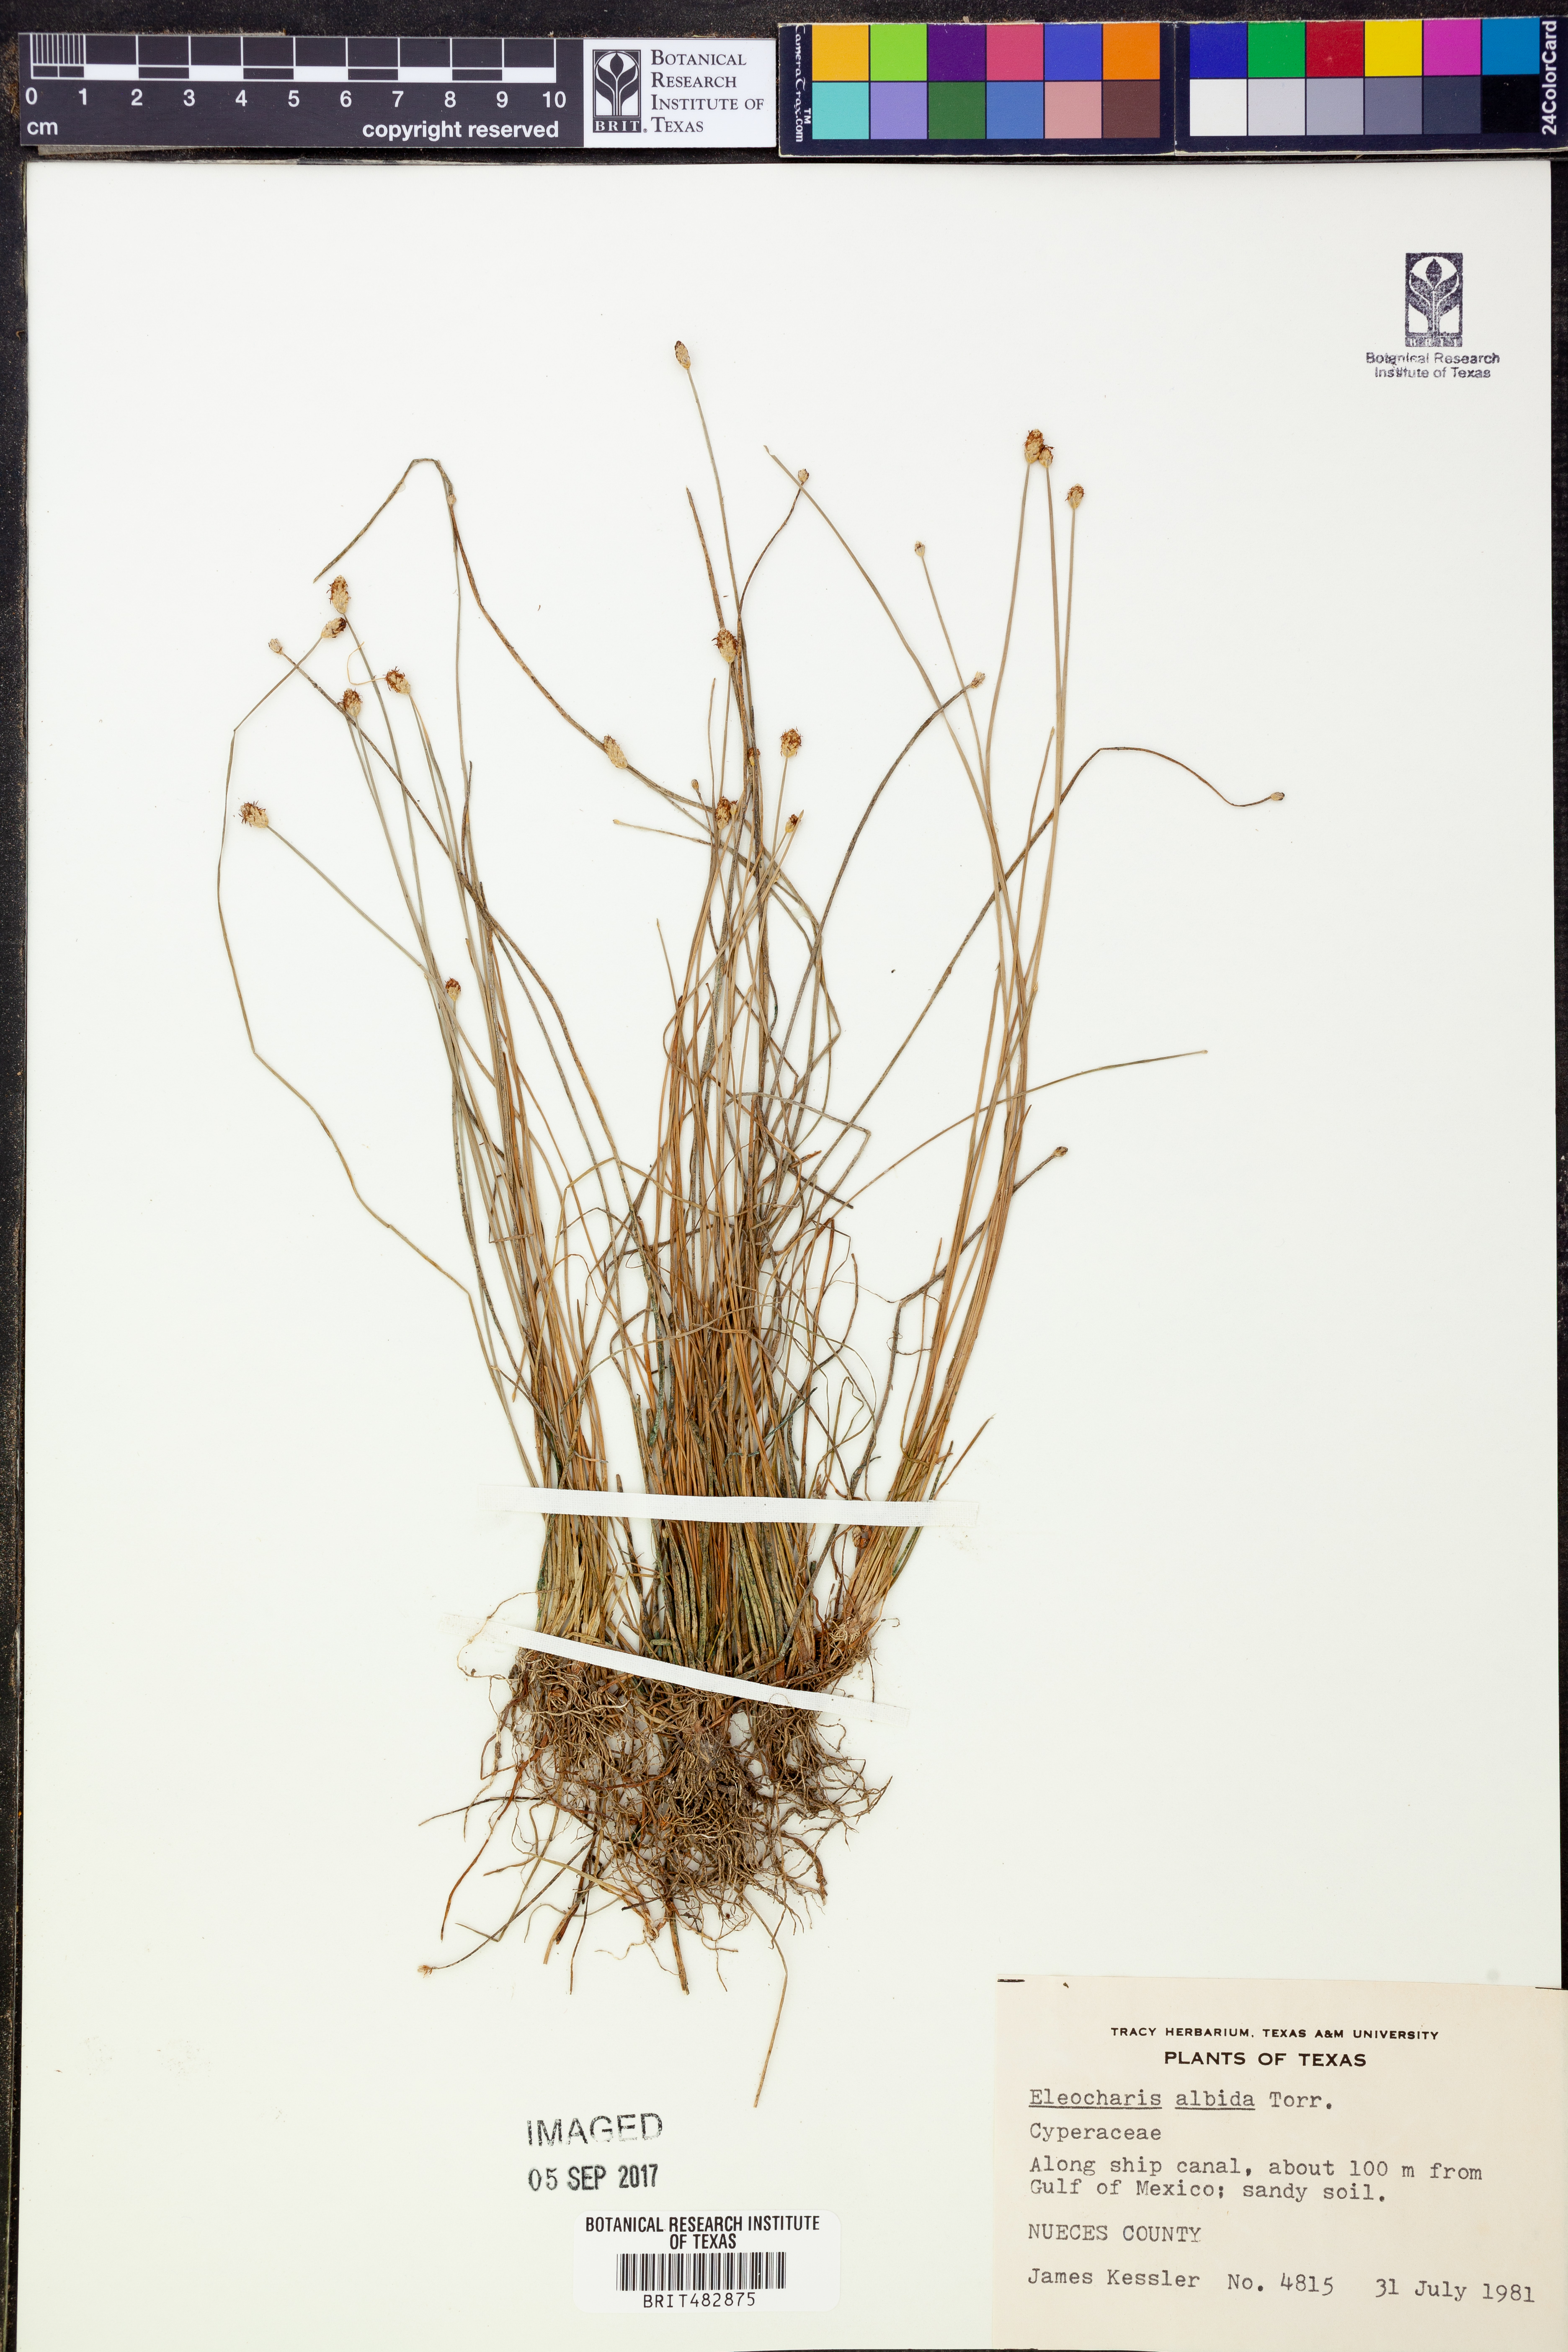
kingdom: Plantae
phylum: Tracheophyta
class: Liliopsida
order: Poales
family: Cyperaceae
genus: Eleocharis
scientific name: Eleocharis albida
